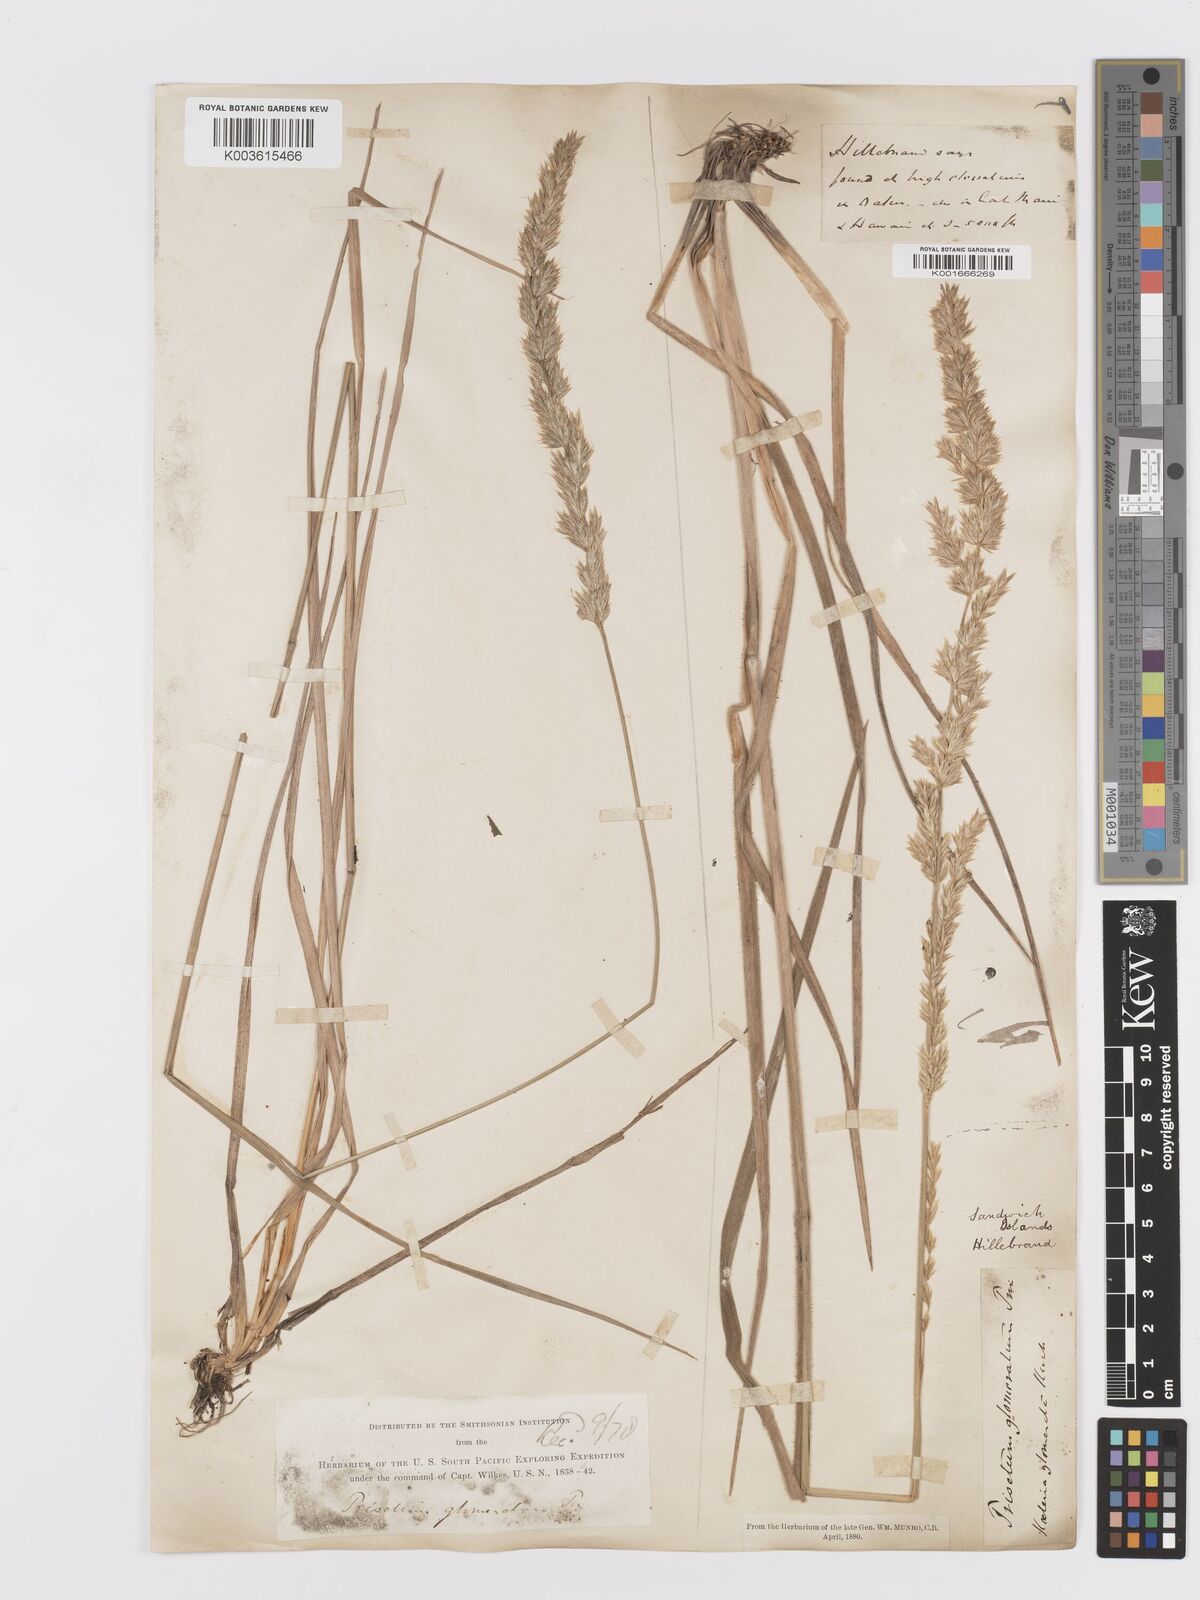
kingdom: Plantae
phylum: Tracheophyta
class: Liliopsida
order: Poales
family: Poaceae
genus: Trisetum
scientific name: Trisetum glomeratum
